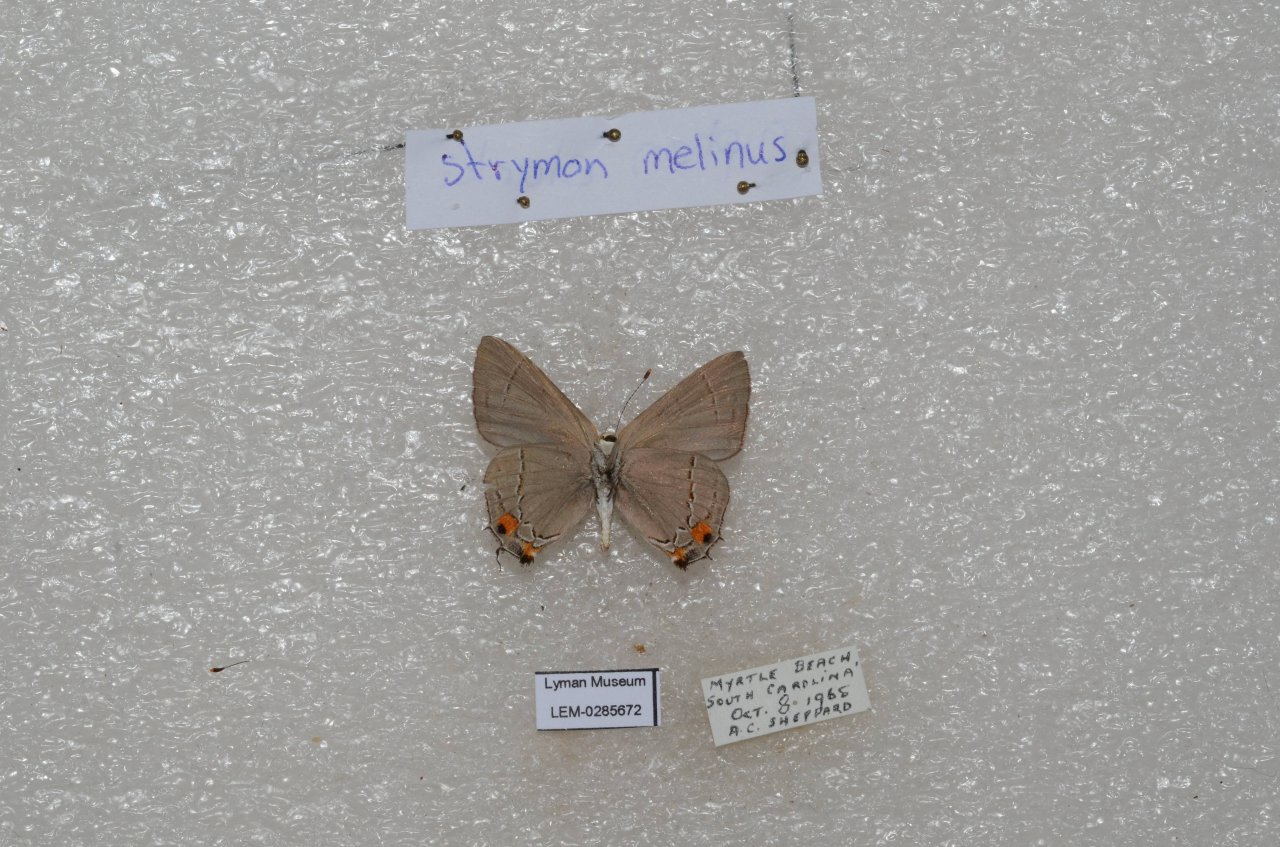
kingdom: Animalia
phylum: Arthropoda
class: Insecta
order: Lepidoptera
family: Lycaenidae
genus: Strymon
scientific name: Strymon melinus
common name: Gray Hairstreak
